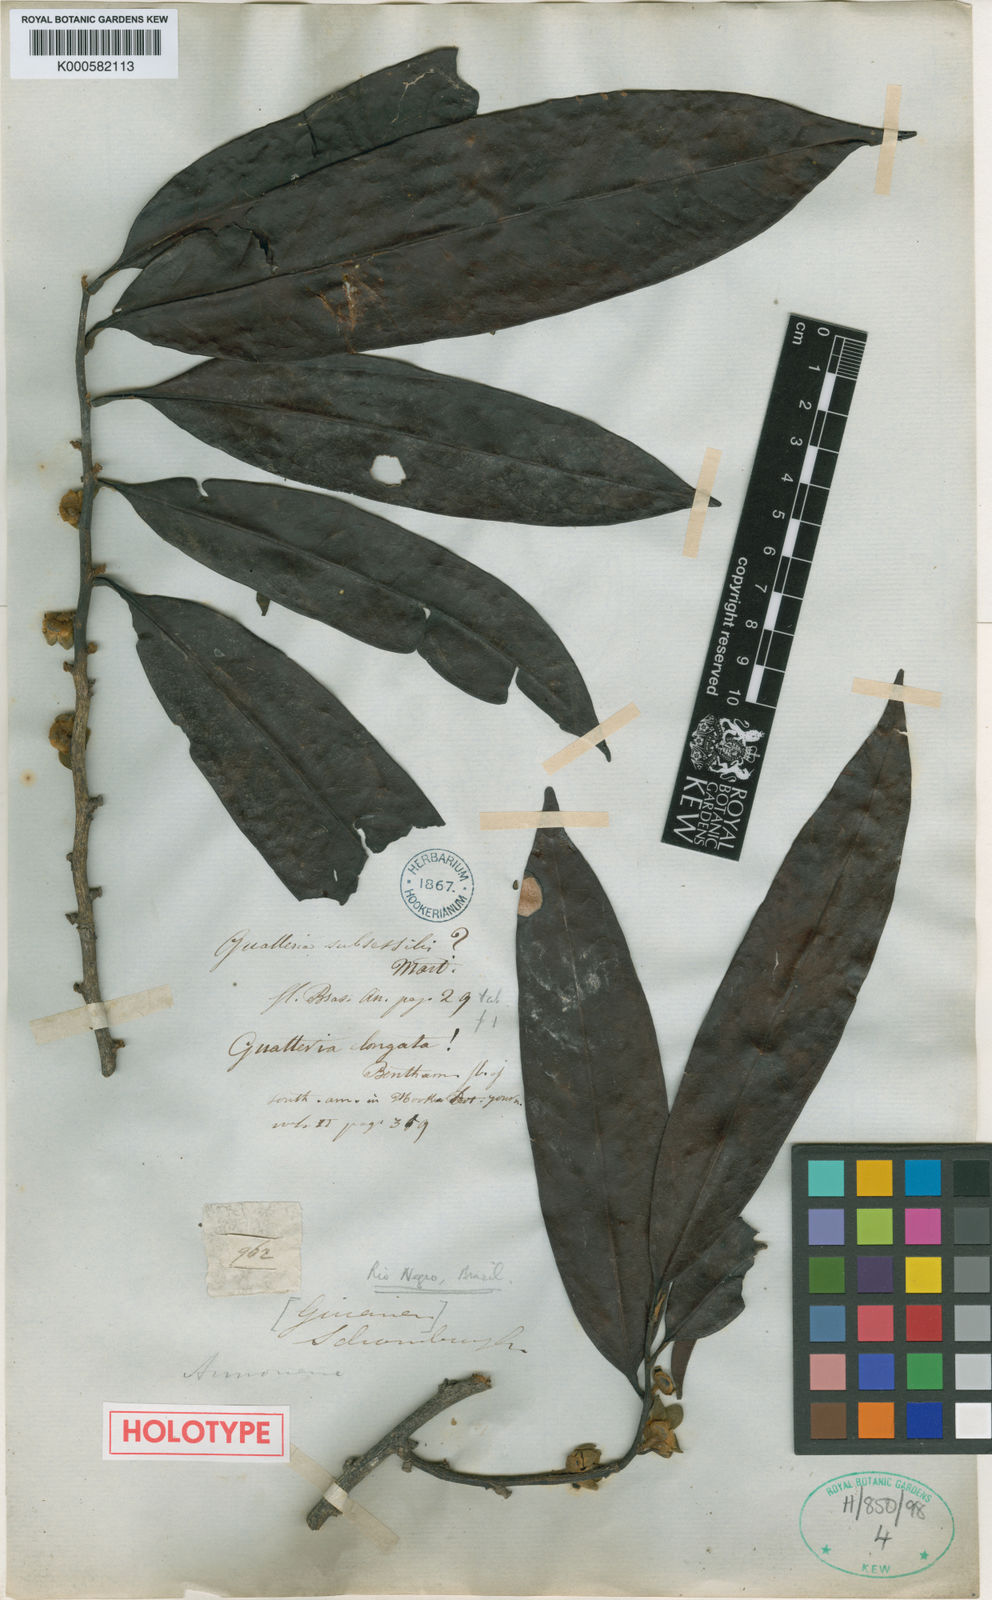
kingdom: Plantae
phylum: Tracheophyta
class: Magnoliopsida
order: Magnoliales
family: Annonaceae
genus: Guatteria
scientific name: Guatteria elongata
